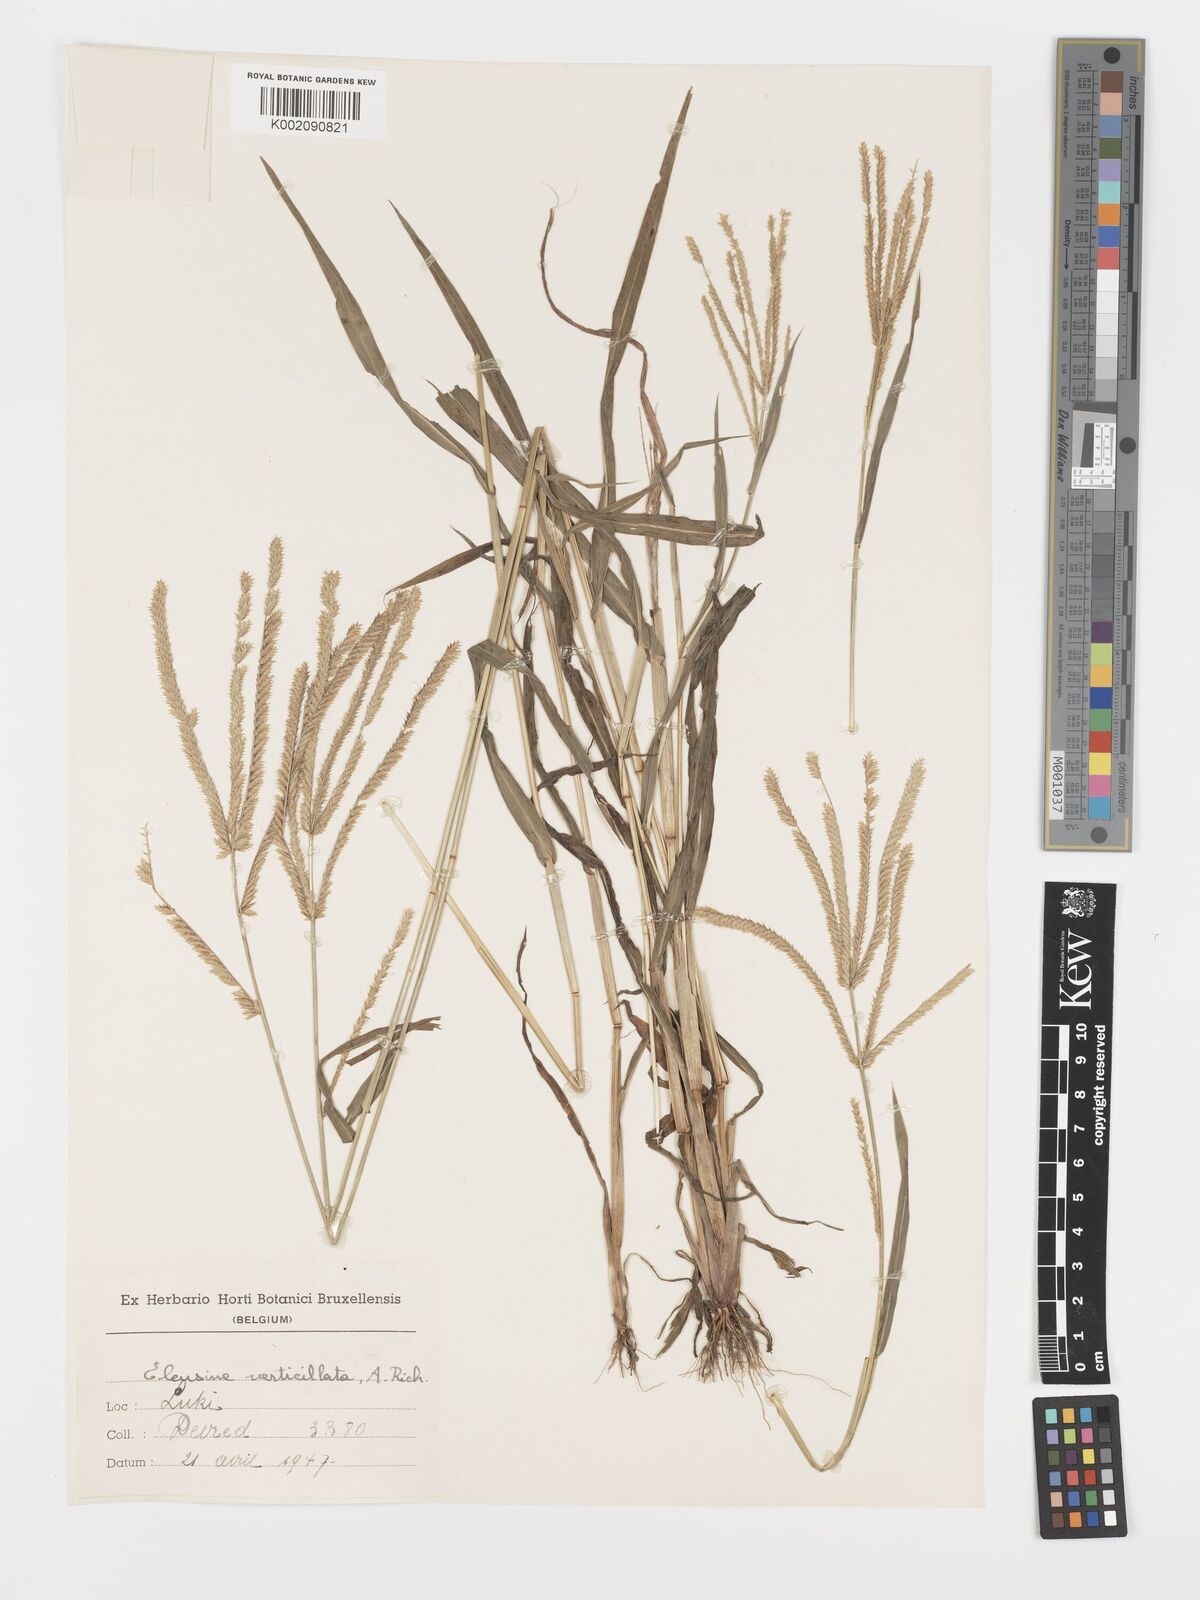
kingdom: Plantae
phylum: Tracheophyta
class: Liliopsida
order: Poales
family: Poaceae
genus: Acrachne
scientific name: Acrachne racemosa
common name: Goosegrass
